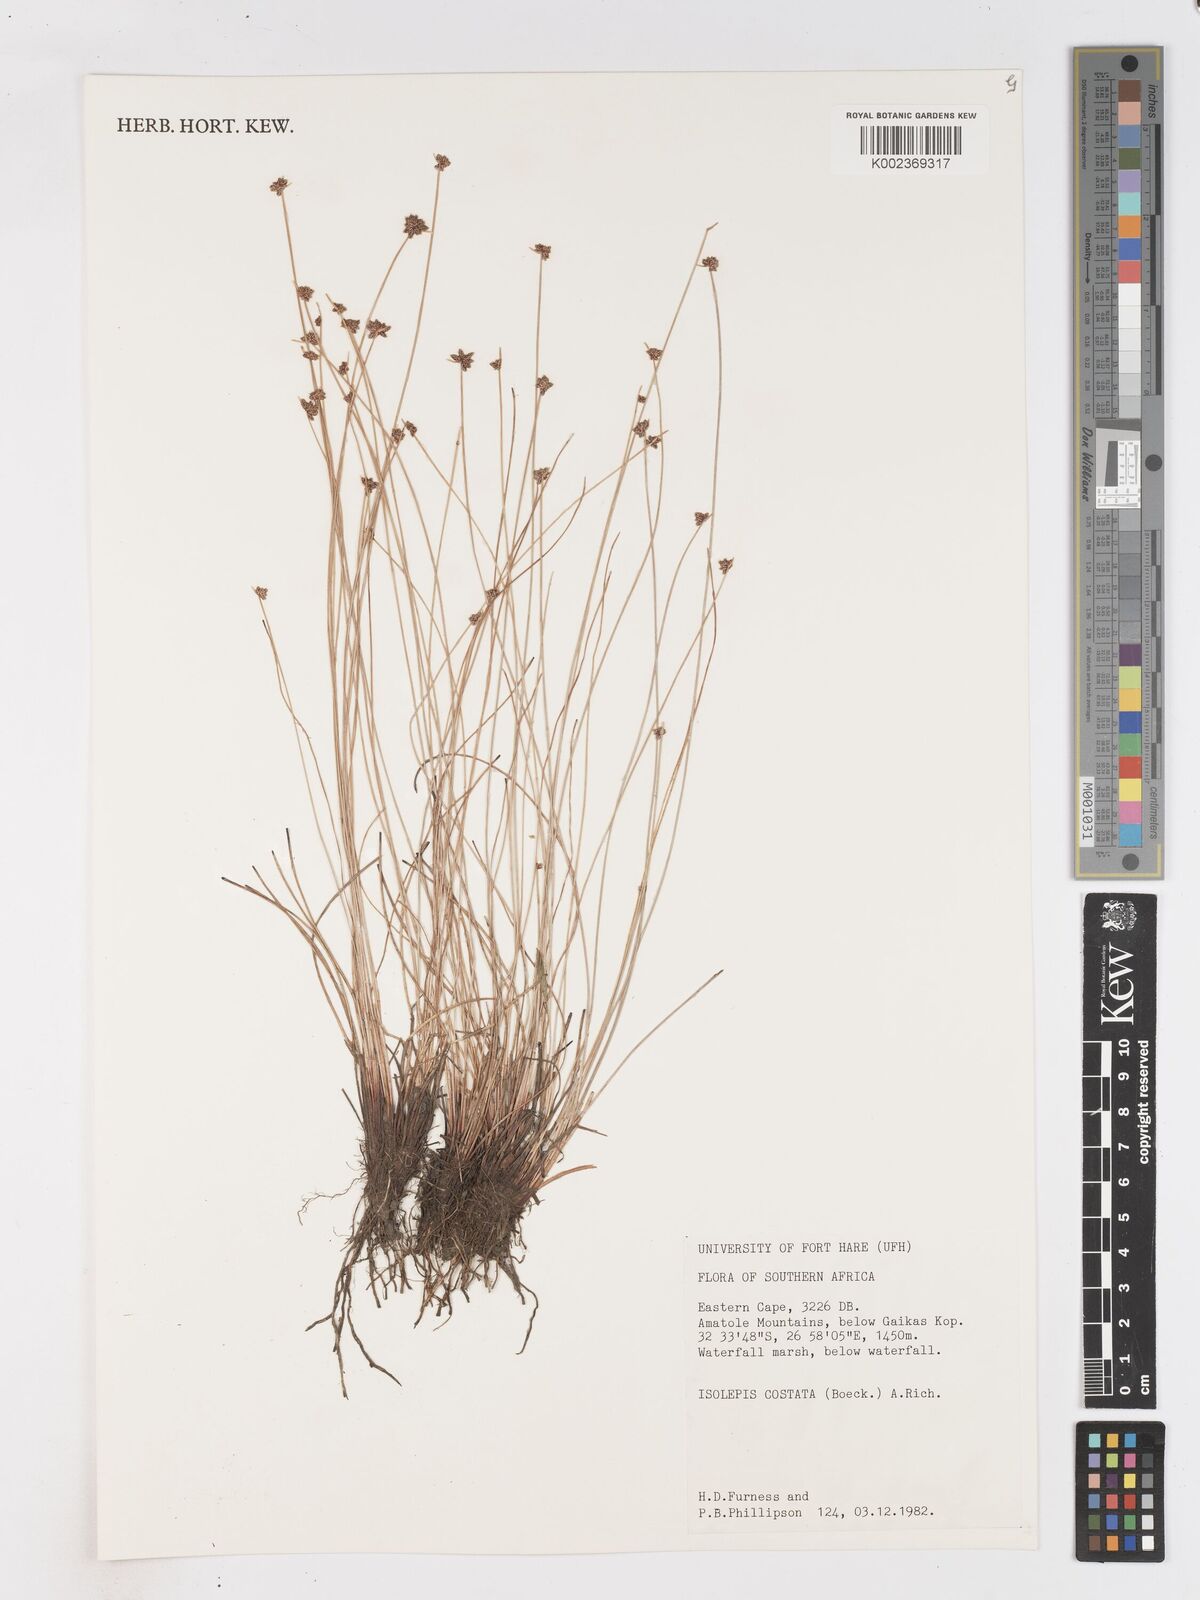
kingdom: Plantae
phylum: Tracheophyta
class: Liliopsida
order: Poales
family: Cyperaceae
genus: Isolepis
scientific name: Isolepis costata
